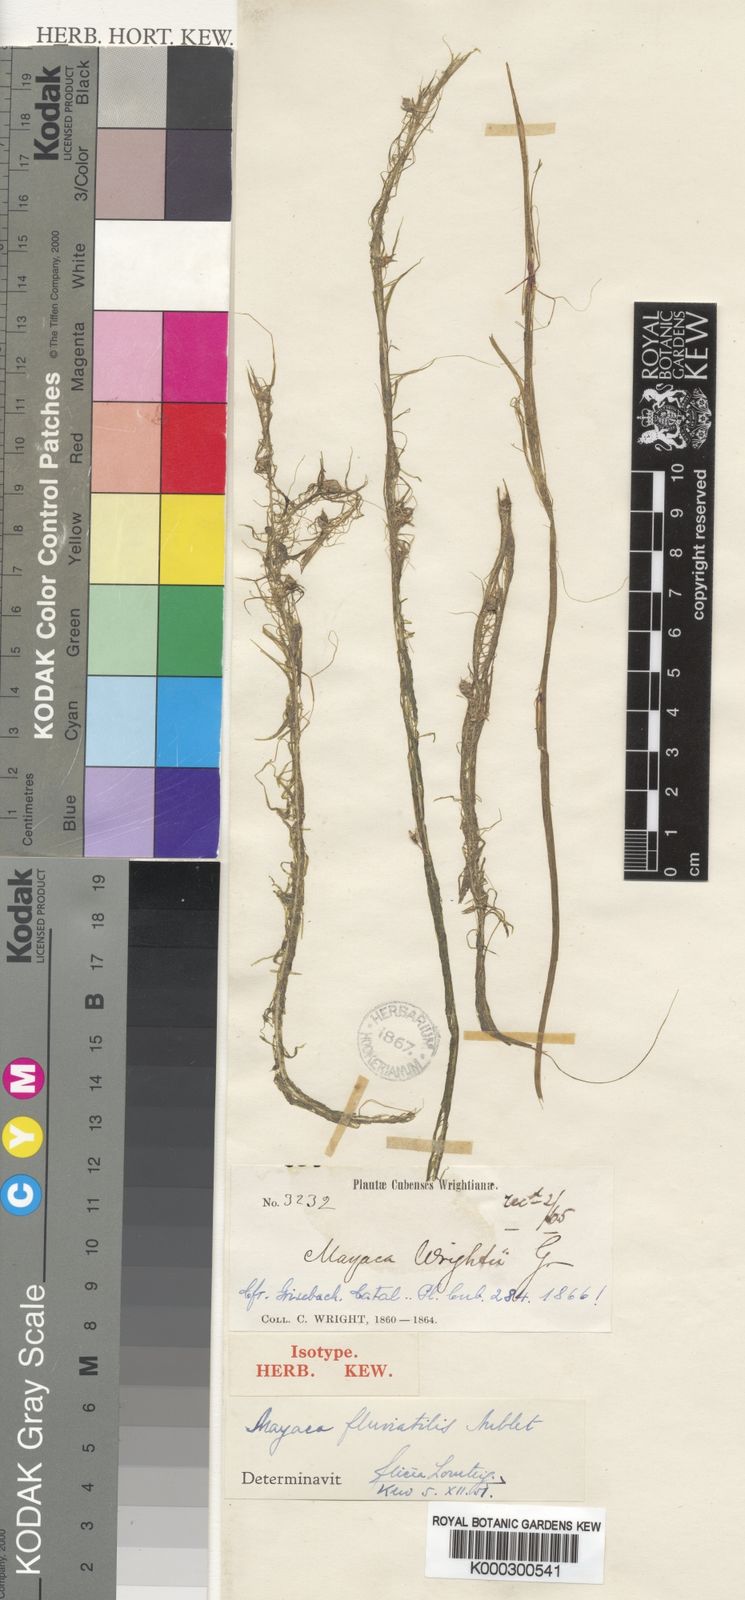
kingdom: Plantae
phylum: Tracheophyta
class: Liliopsida
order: Poales
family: Mayacaceae
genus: Mayaca
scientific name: Mayaca kunthii
